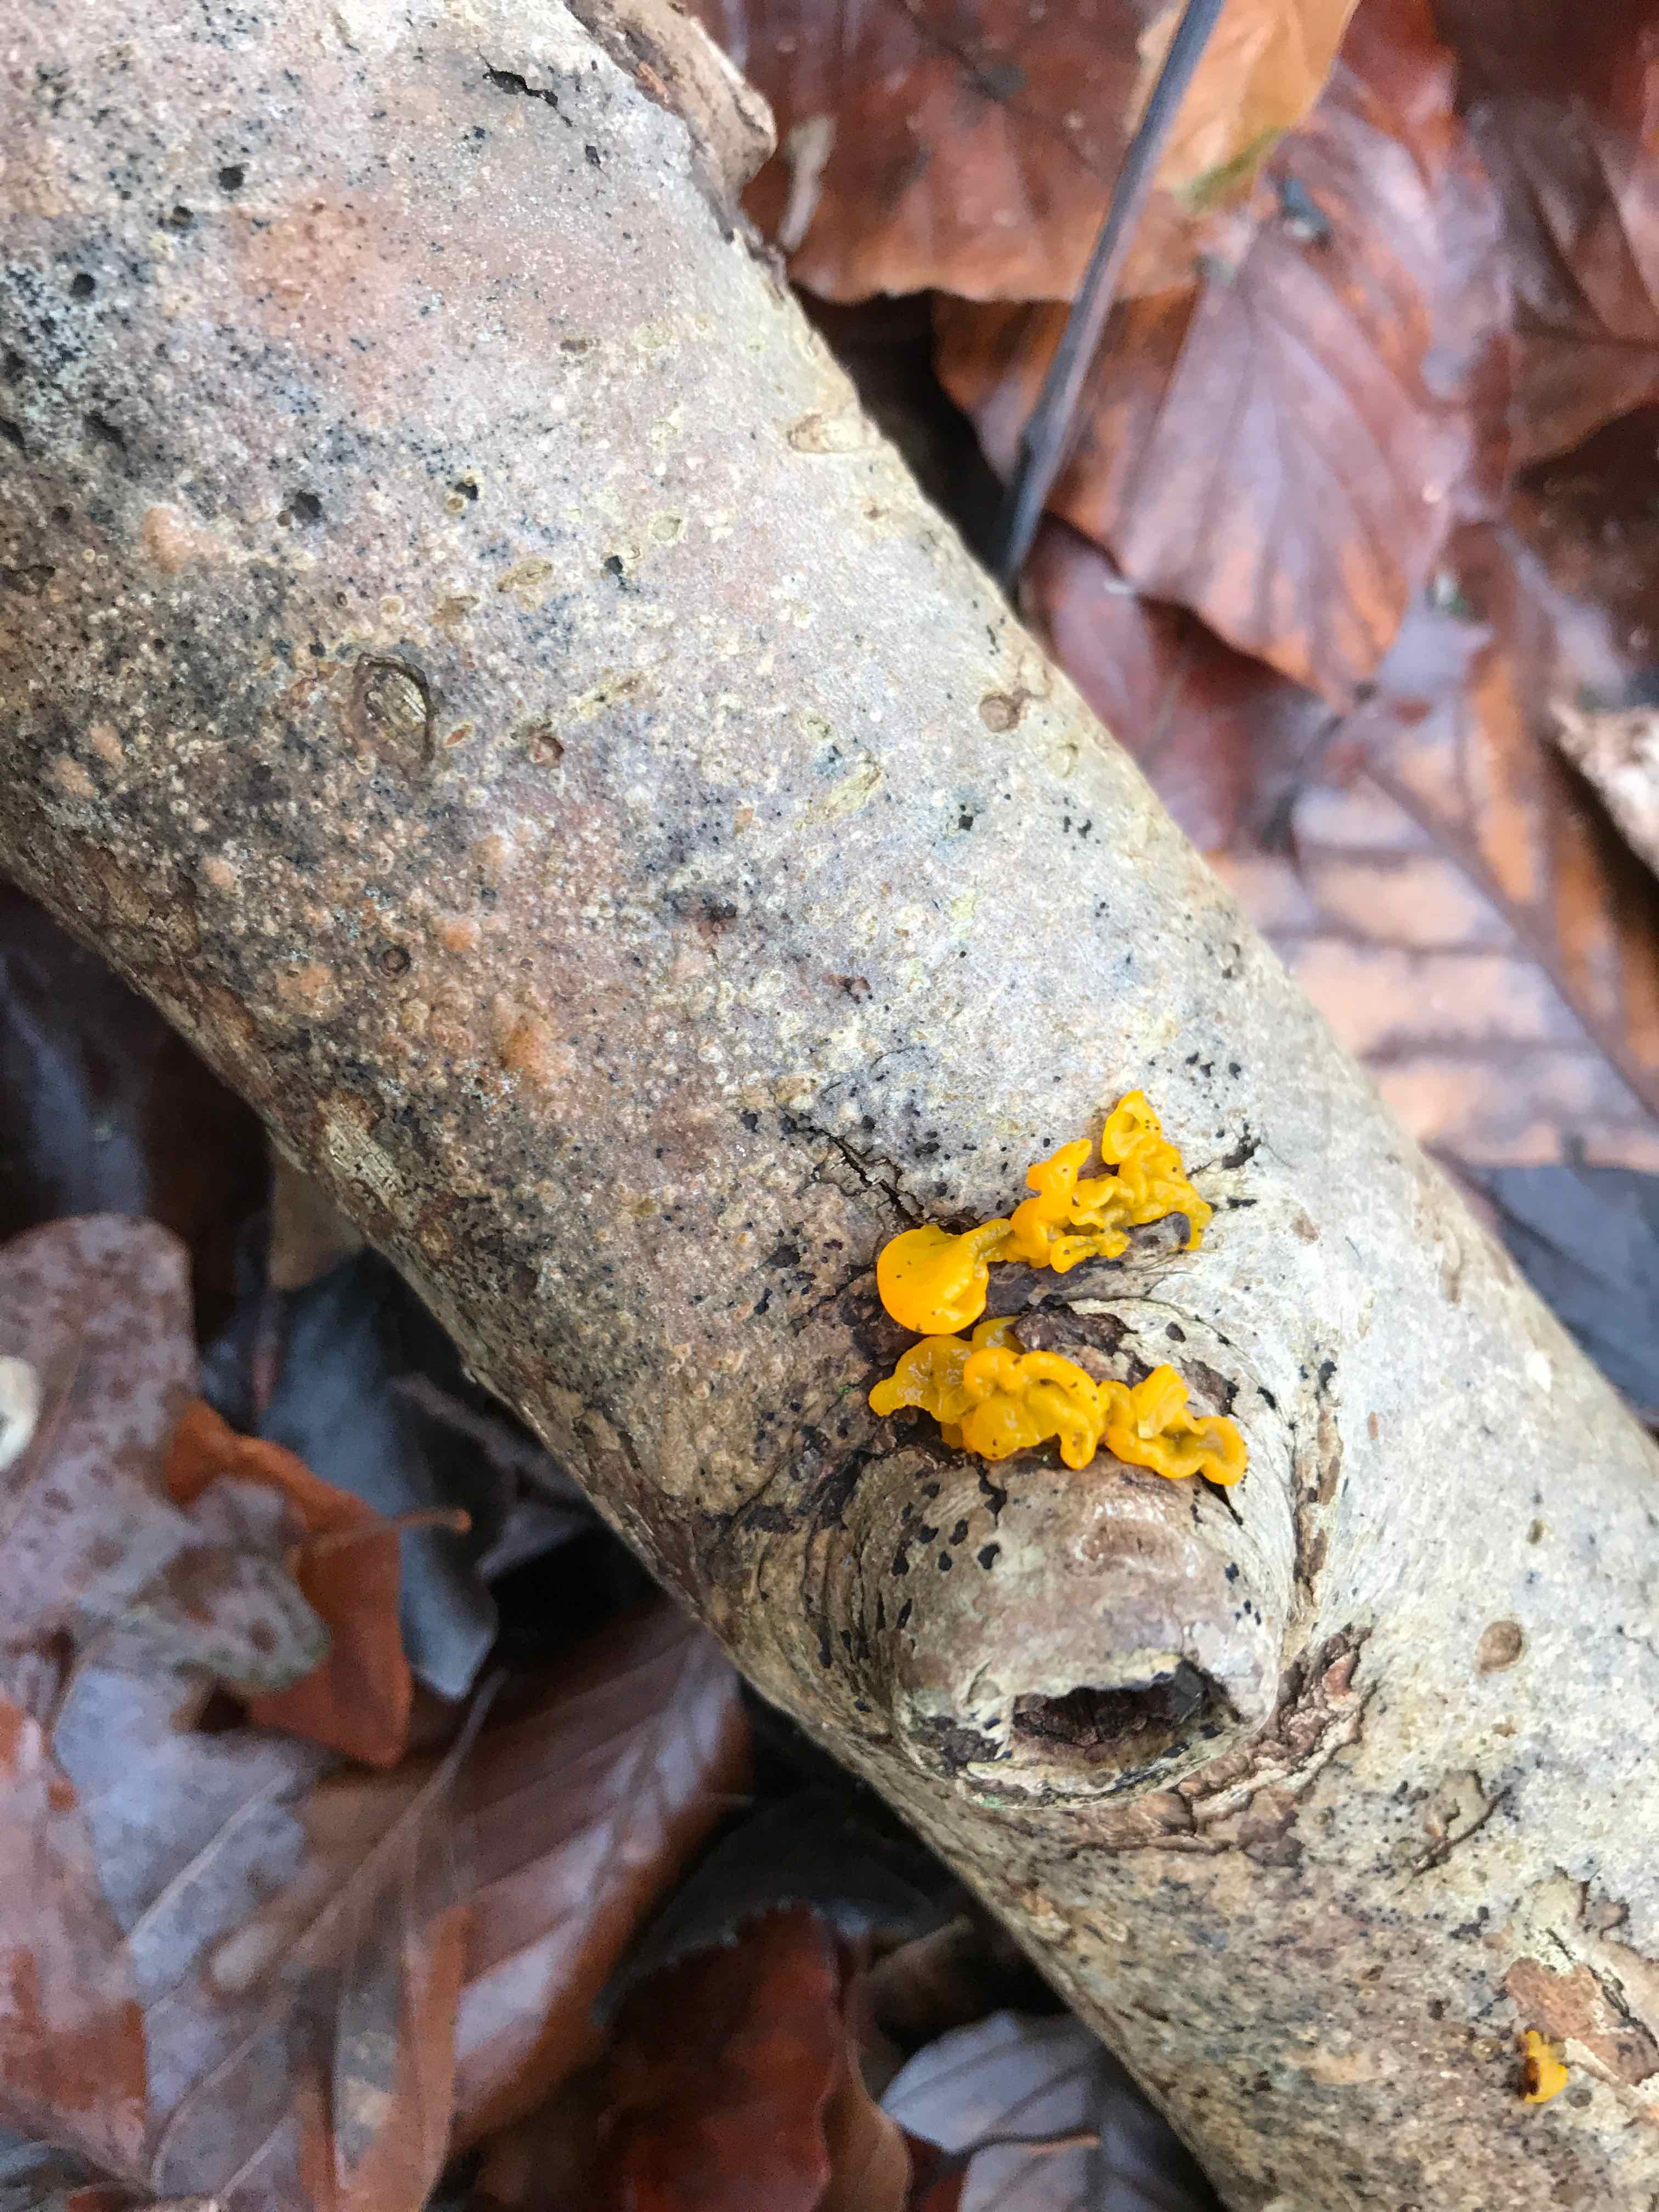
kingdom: Fungi
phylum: Basidiomycota
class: Tremellomycetes
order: Tremellales
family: Tremellaceae
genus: Tremella
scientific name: Tremella mesenterica
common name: gul bævresvamp
